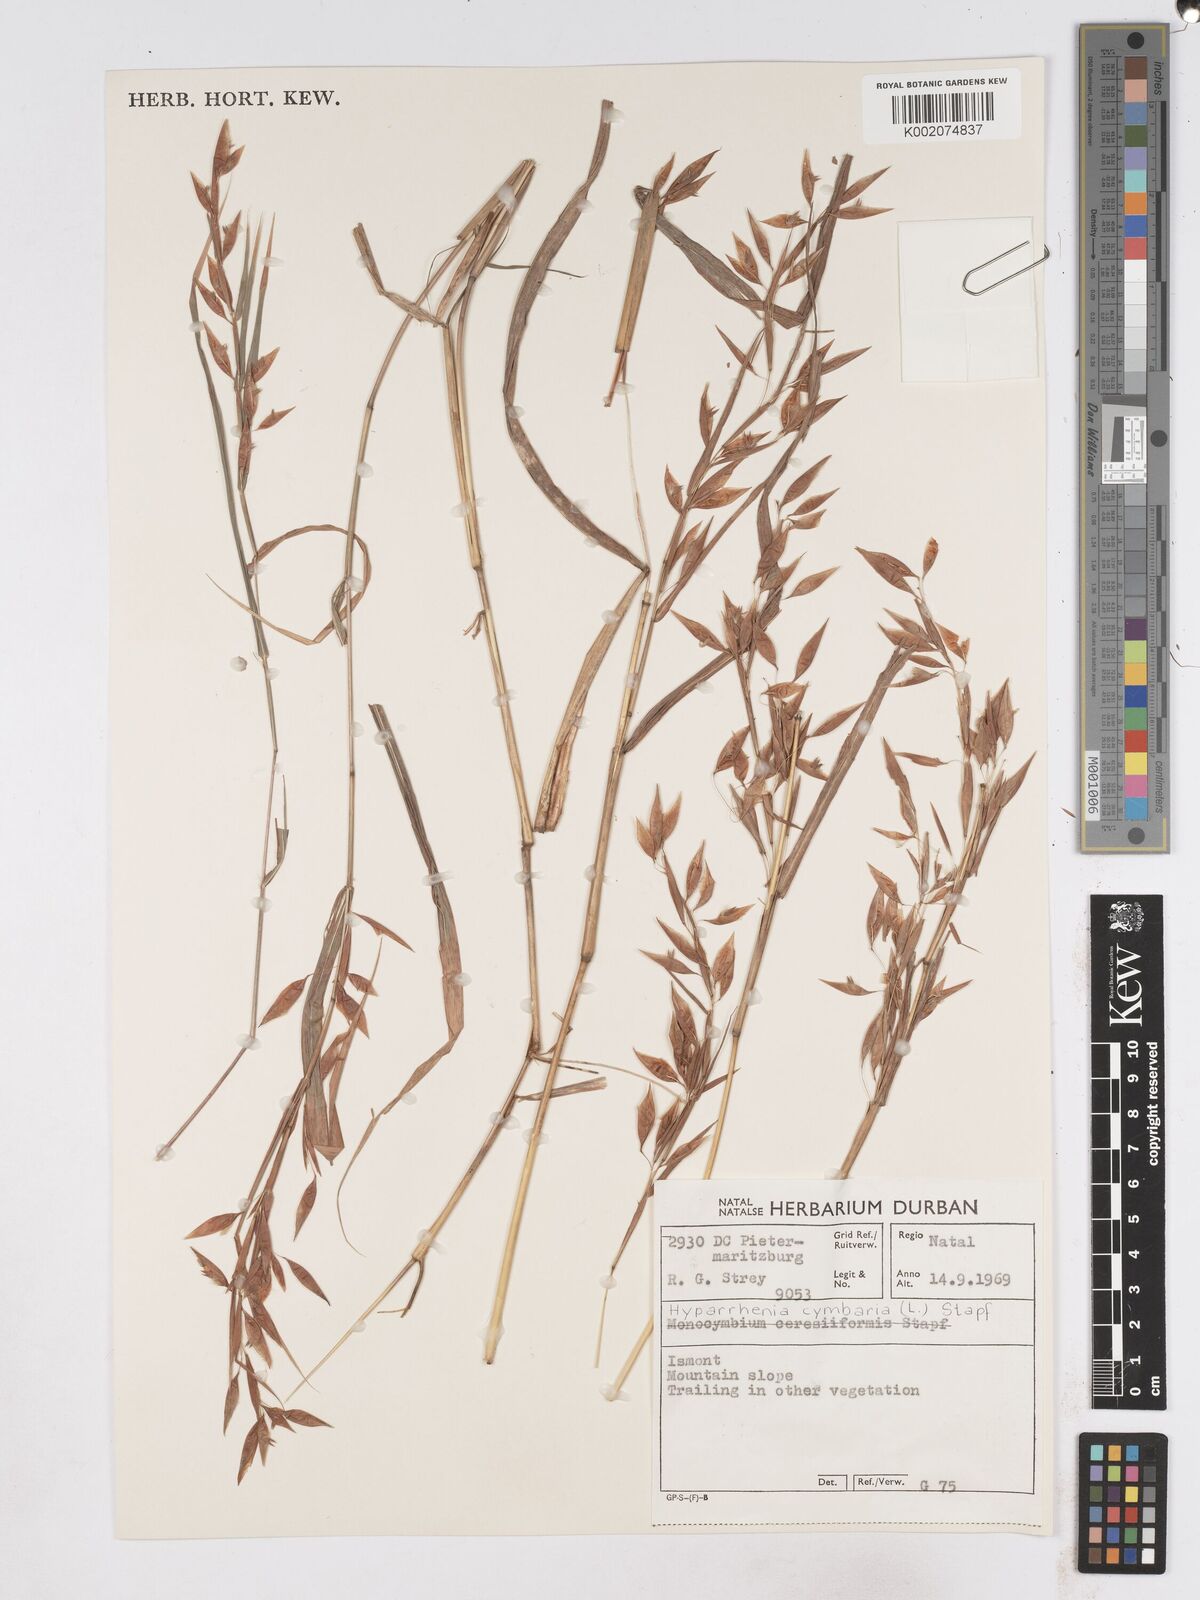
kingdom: Plantae
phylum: Tracheophyta
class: Liliopsida
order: Poales
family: Poaceae
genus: Hyparrhenia
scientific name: Hyparrhenia cymbaria
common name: Boat thatching grass
